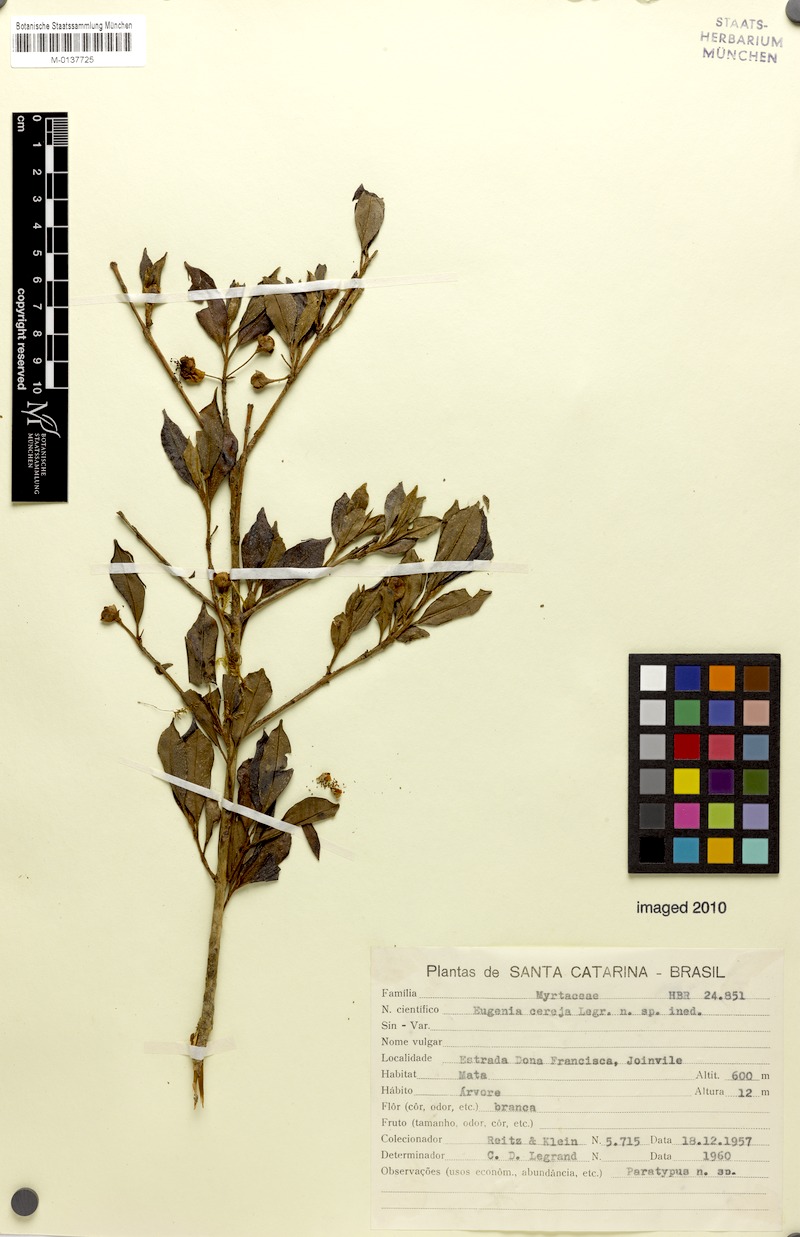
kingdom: Plantae
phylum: Tracheophyta
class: Magnoliopsida
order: Myrtales
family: Myrtaceae
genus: Eugenia
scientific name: Eugenia cereja
